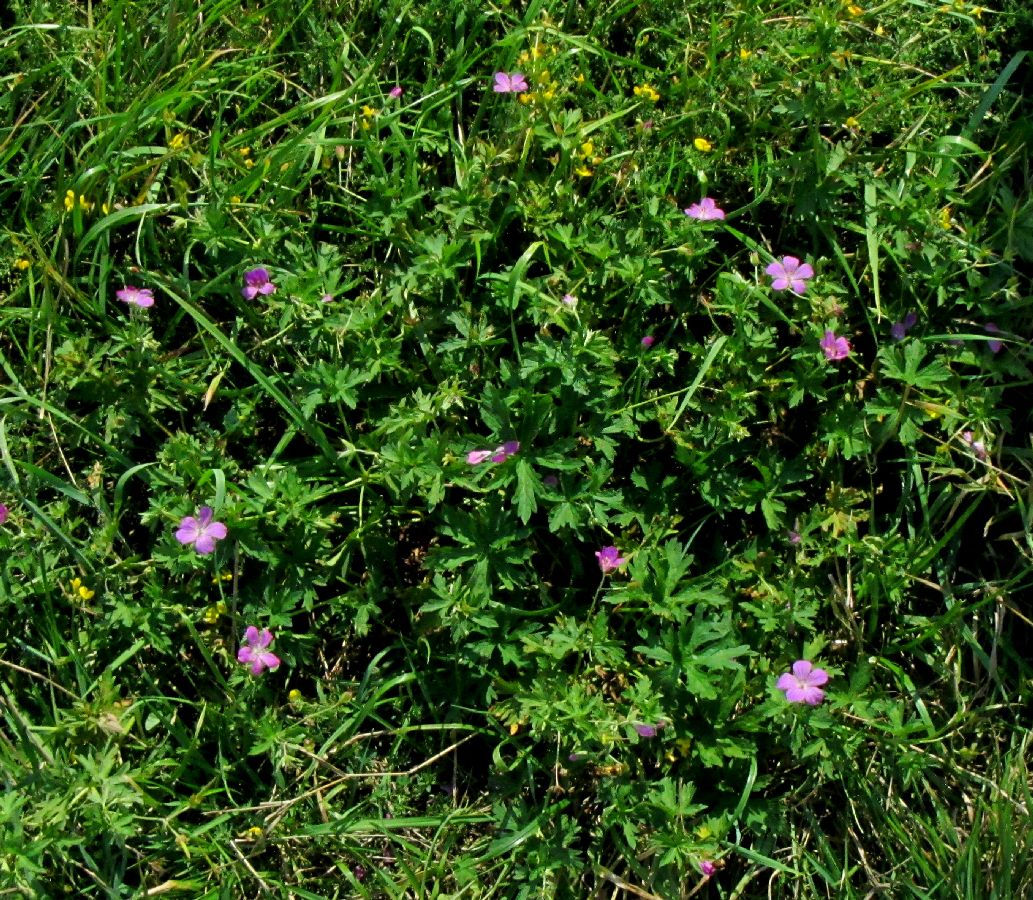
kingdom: Plantae
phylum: Tracheophyta
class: Magnoliopsida
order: Geraniales
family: Geraniaceae
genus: Geranium
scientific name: Geranium palustre
